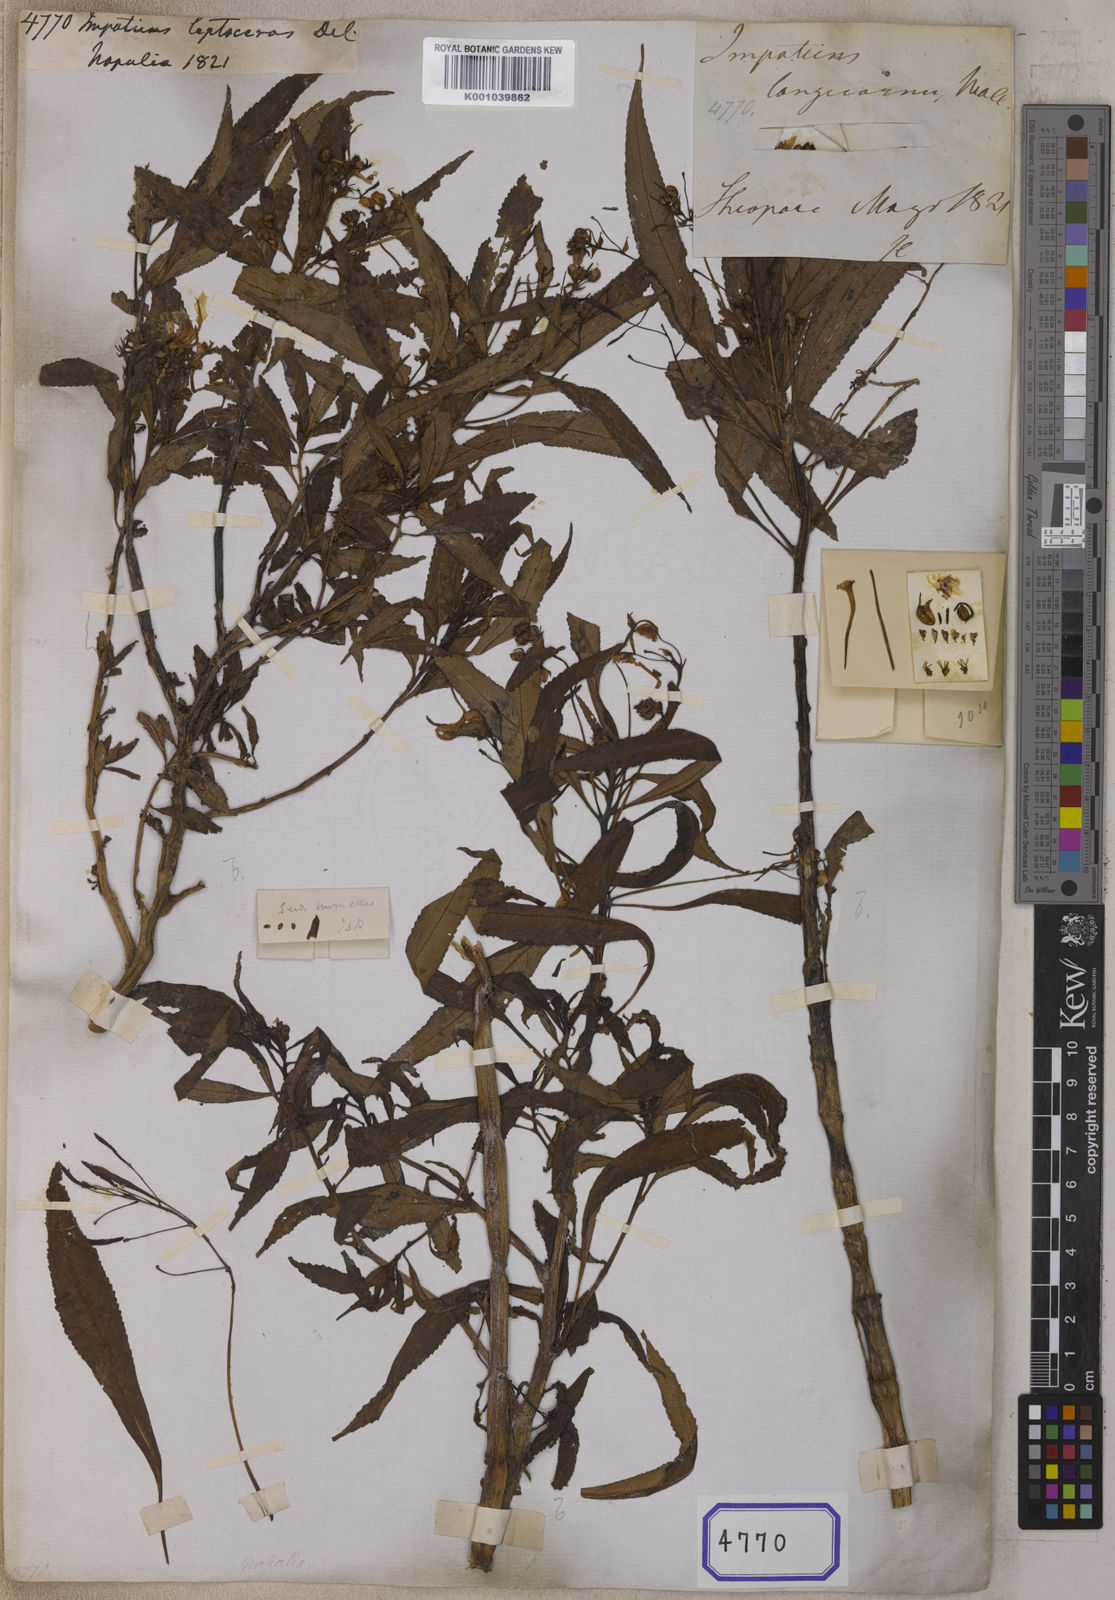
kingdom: Plantae
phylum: Tracheophyta
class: Magnoliopsida
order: Ericales
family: Balsaminaceae
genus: Impatiens
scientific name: Impatiens leptoceras
